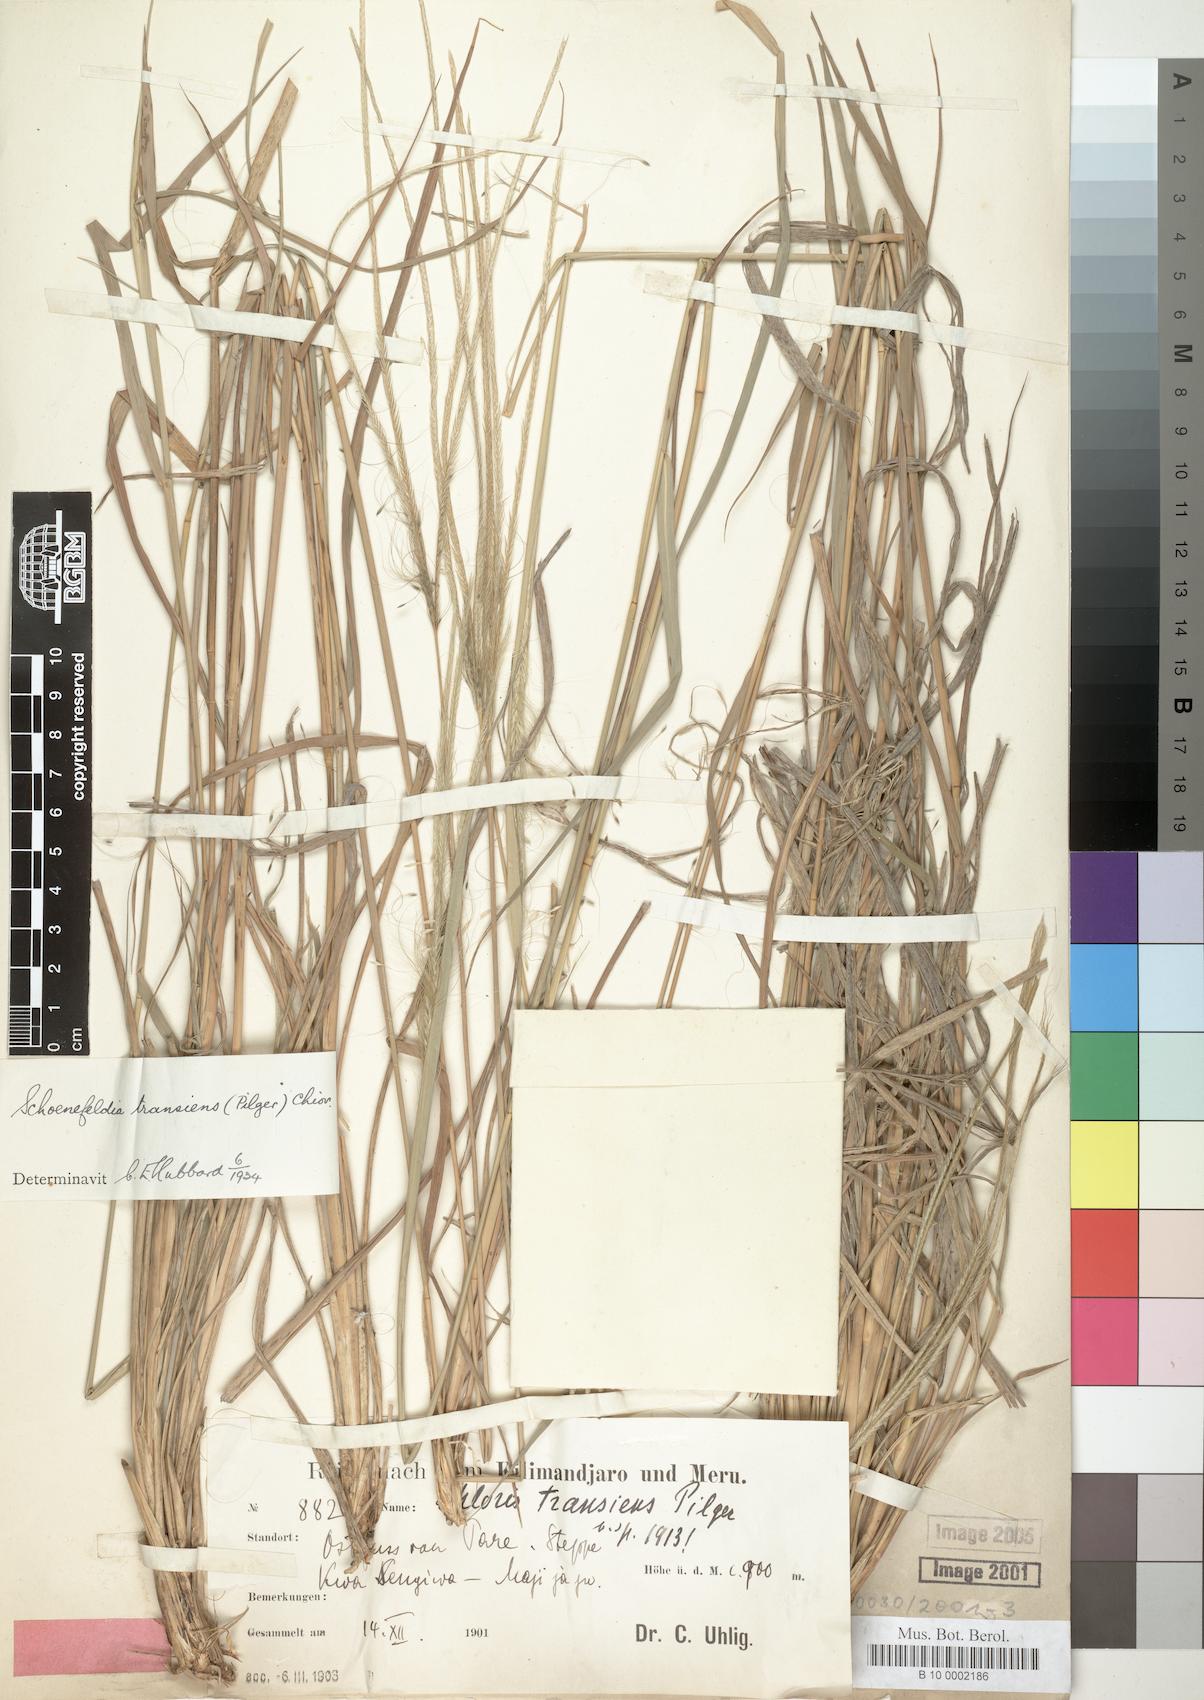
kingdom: Plantae
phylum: Tracheophyta
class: Liliopsida
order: Poales
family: Poaceae
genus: Schoenefeldia
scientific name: Schoenefeldia transiens
